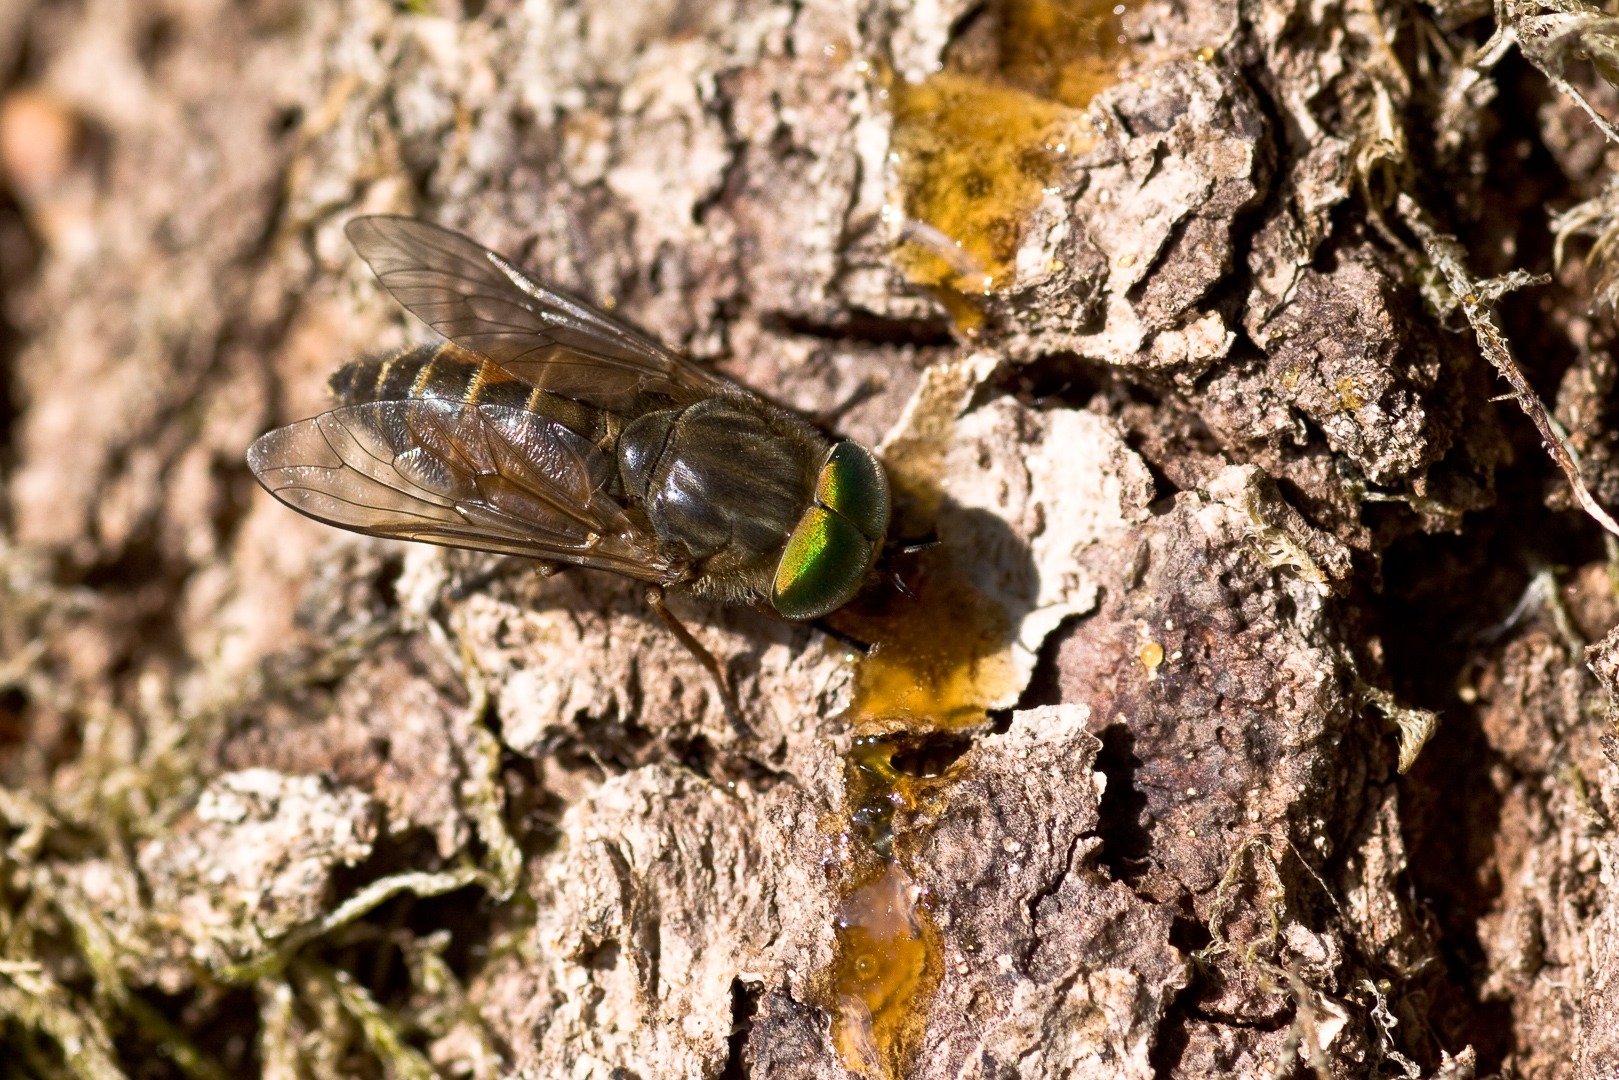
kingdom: Animalia
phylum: Arthropoda
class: Insecta
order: Diptera
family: Tabanidae
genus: Hybomitra
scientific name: Hybomitra
